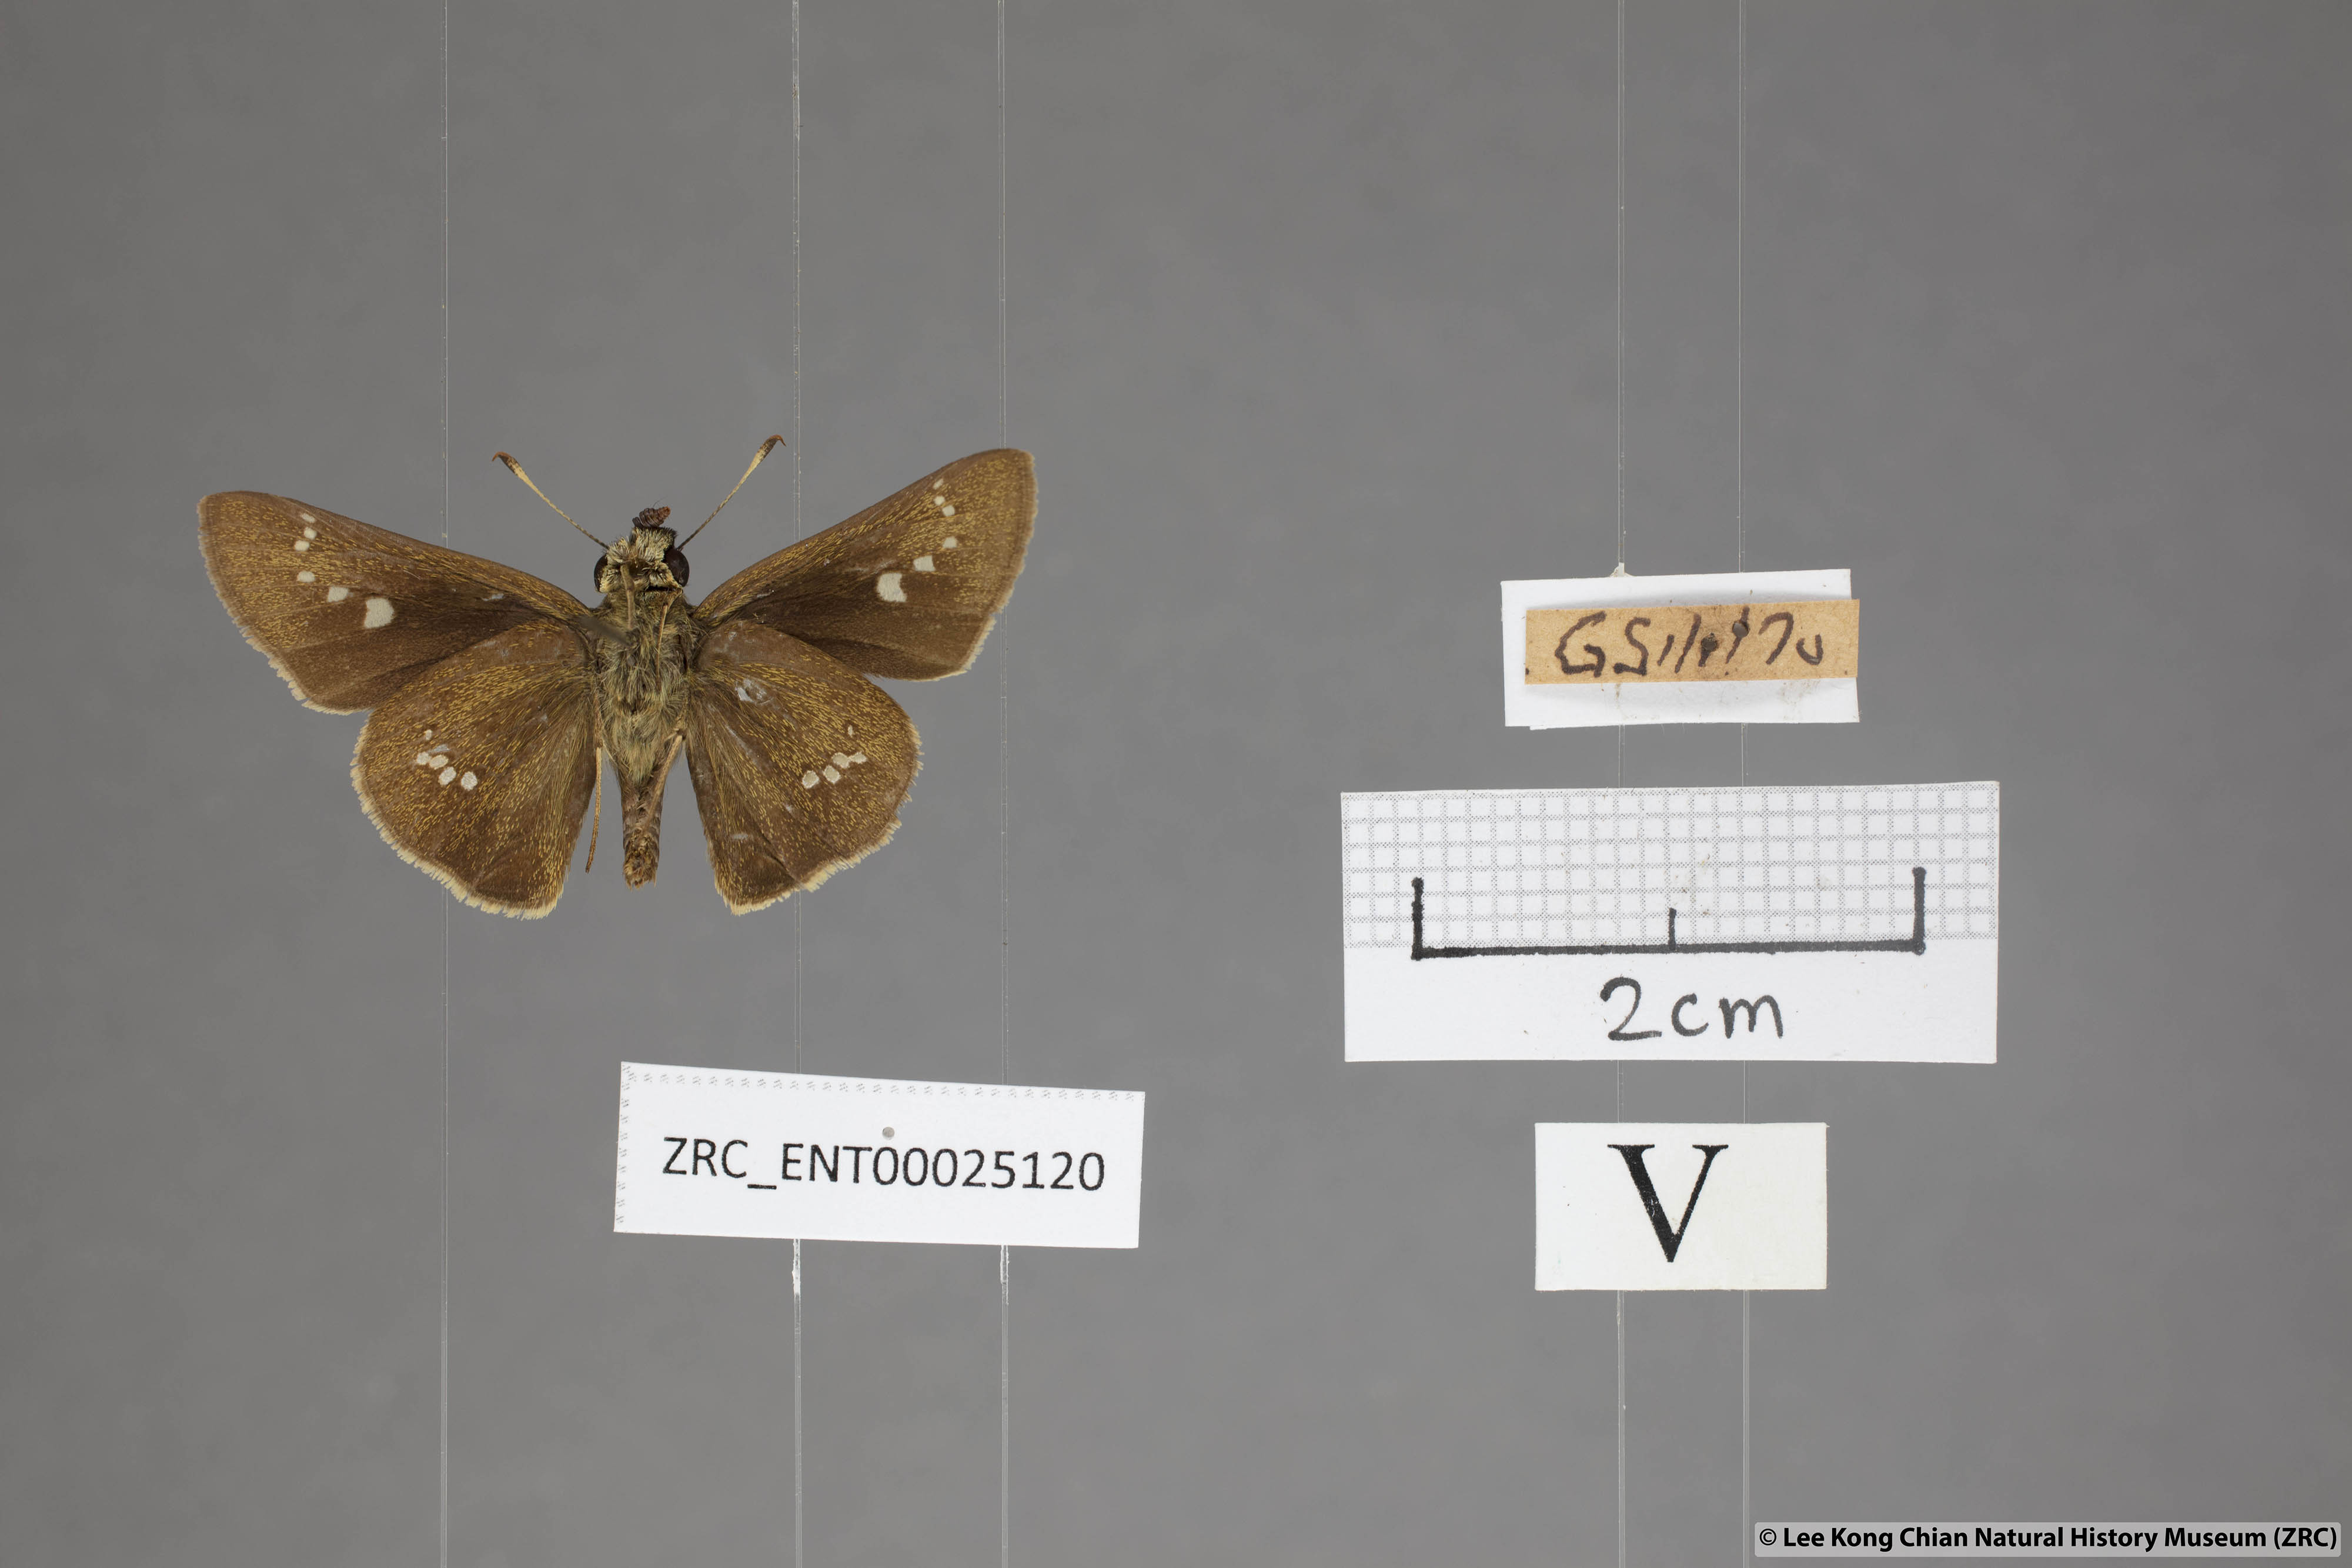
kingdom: Animalia
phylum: Arthropoda
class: Insecta
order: Lepidoptera
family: Hesperiidae
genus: Parnara
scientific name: Parnara apostata
